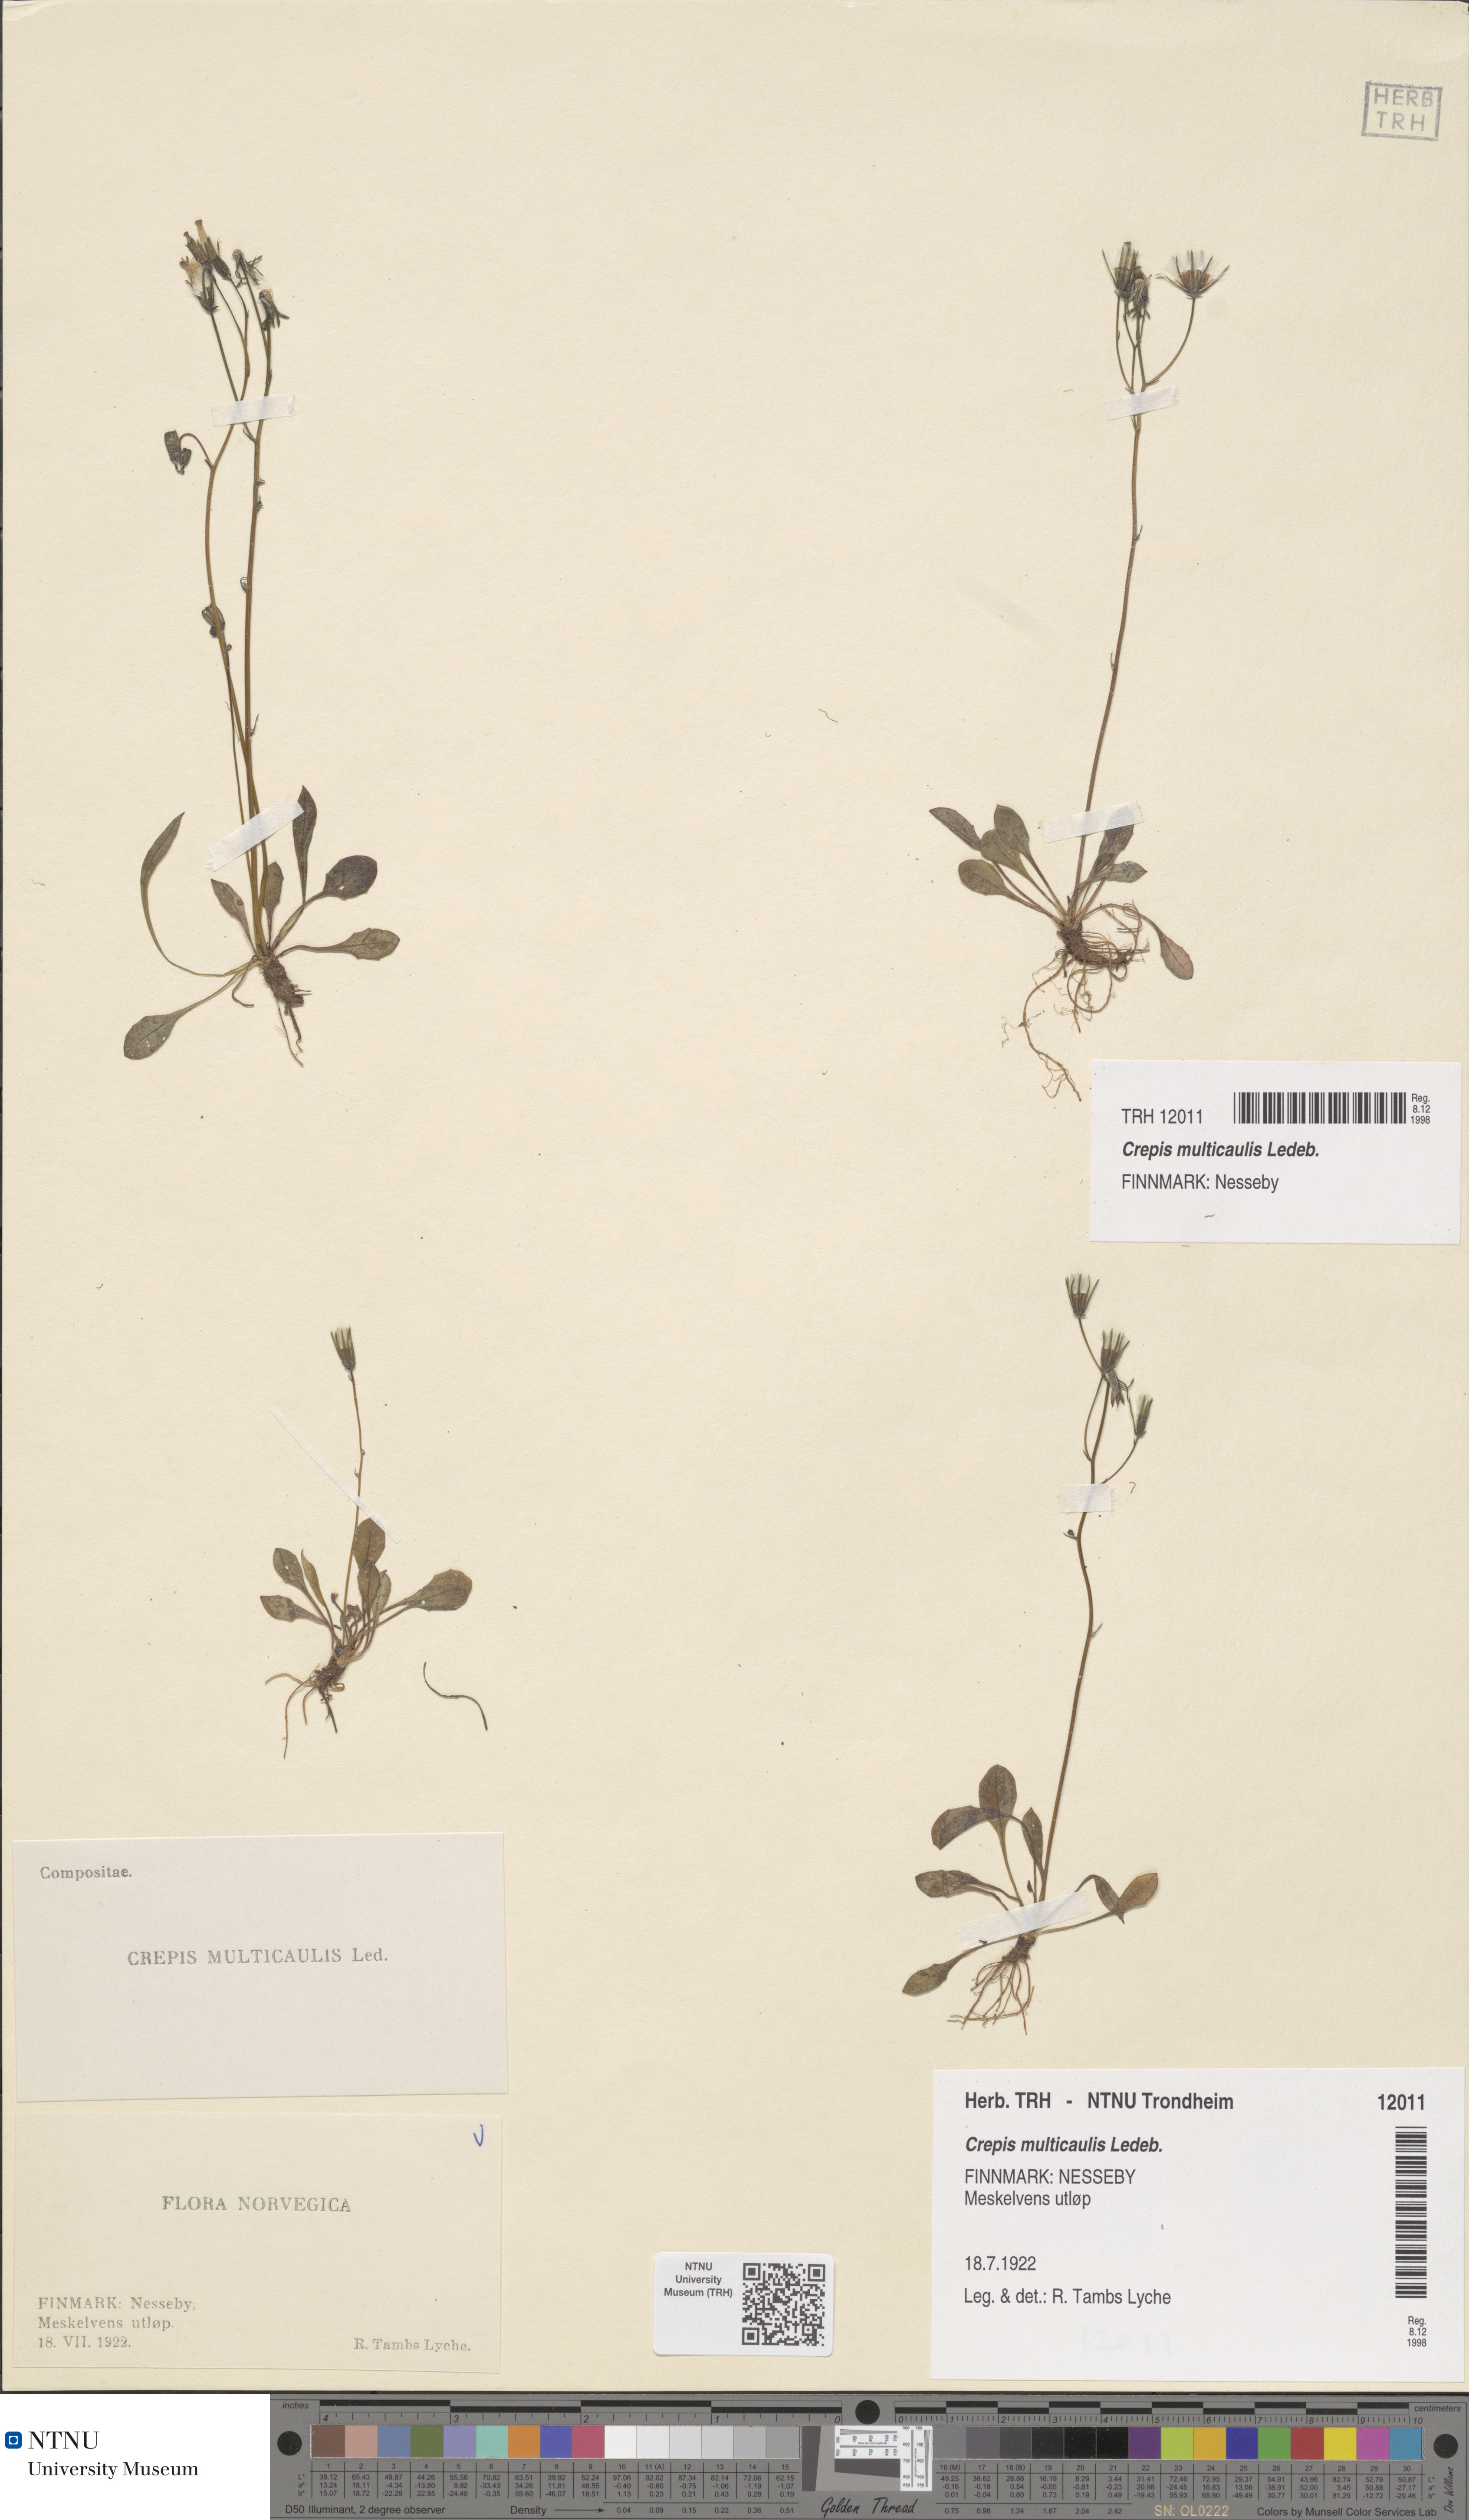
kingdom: Plantae
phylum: Tracheophyta
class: Magnoliopsida
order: Asterales
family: Asteraceae
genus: Crepis
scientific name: Crepis multicaulis
